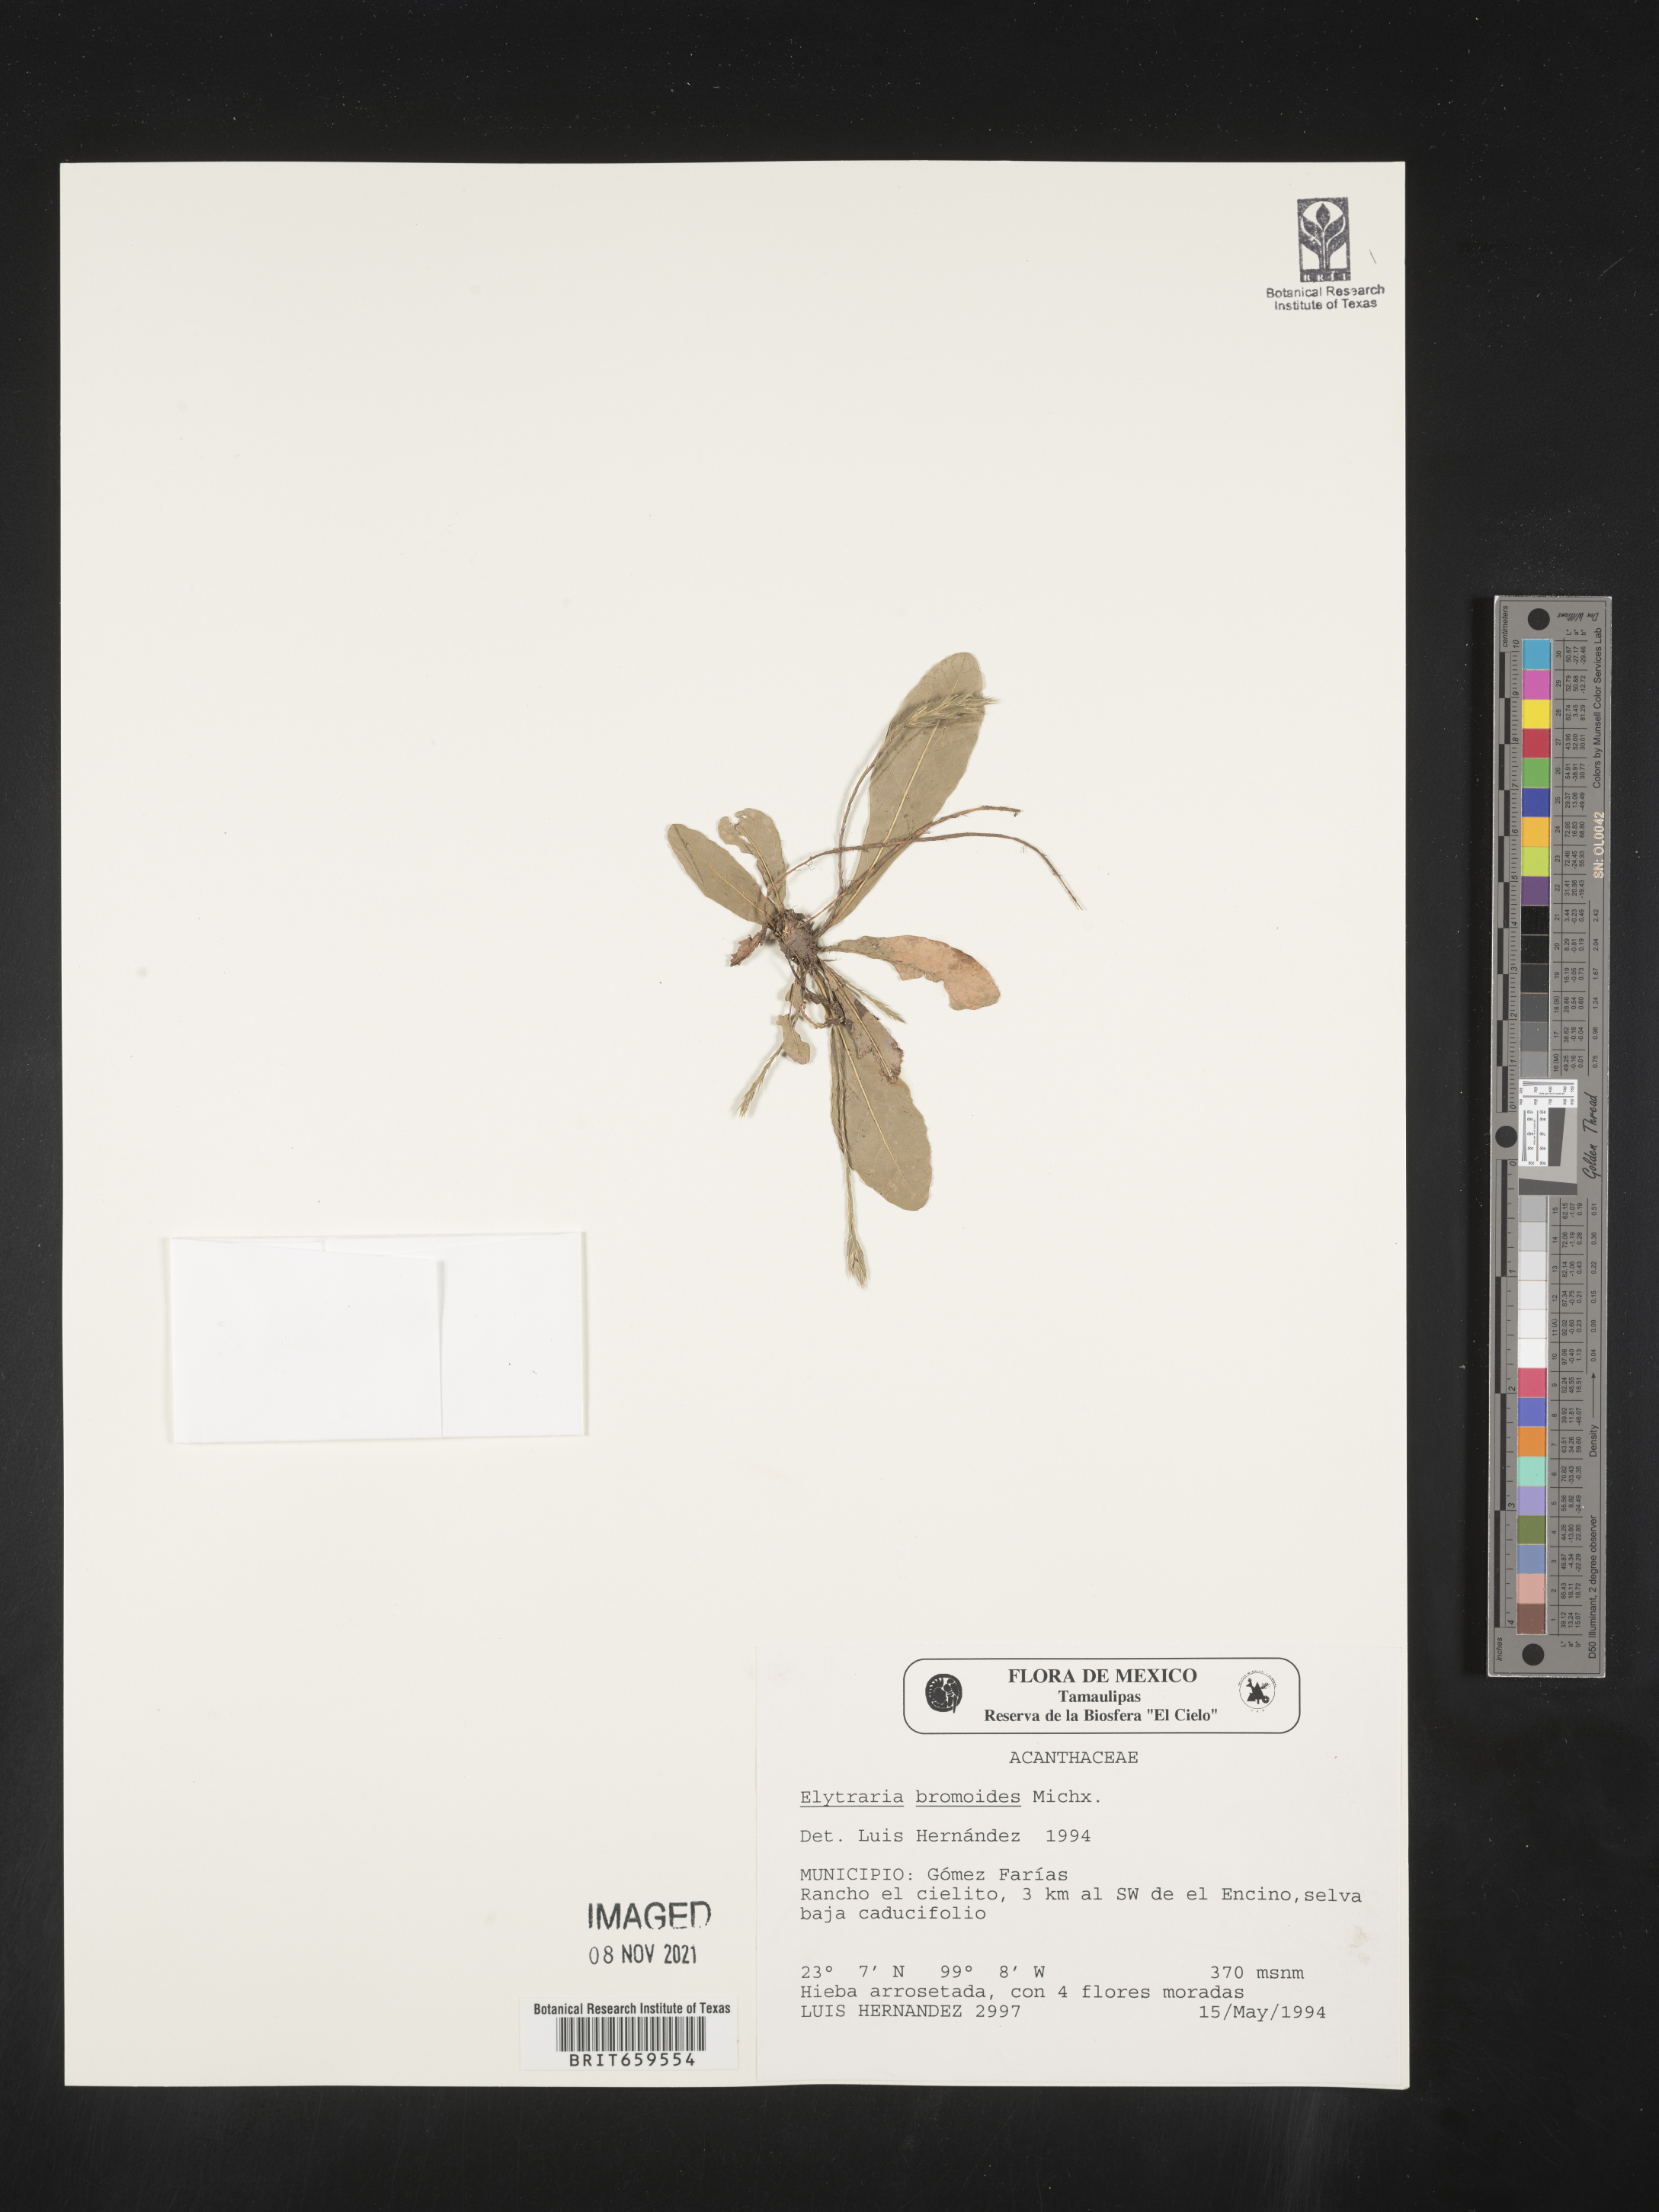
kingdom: Plantae
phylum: Tracheophyta
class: Magnoliopsida
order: Lamiales
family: Acanthaceae
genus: Elytraria
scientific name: Elytraria
